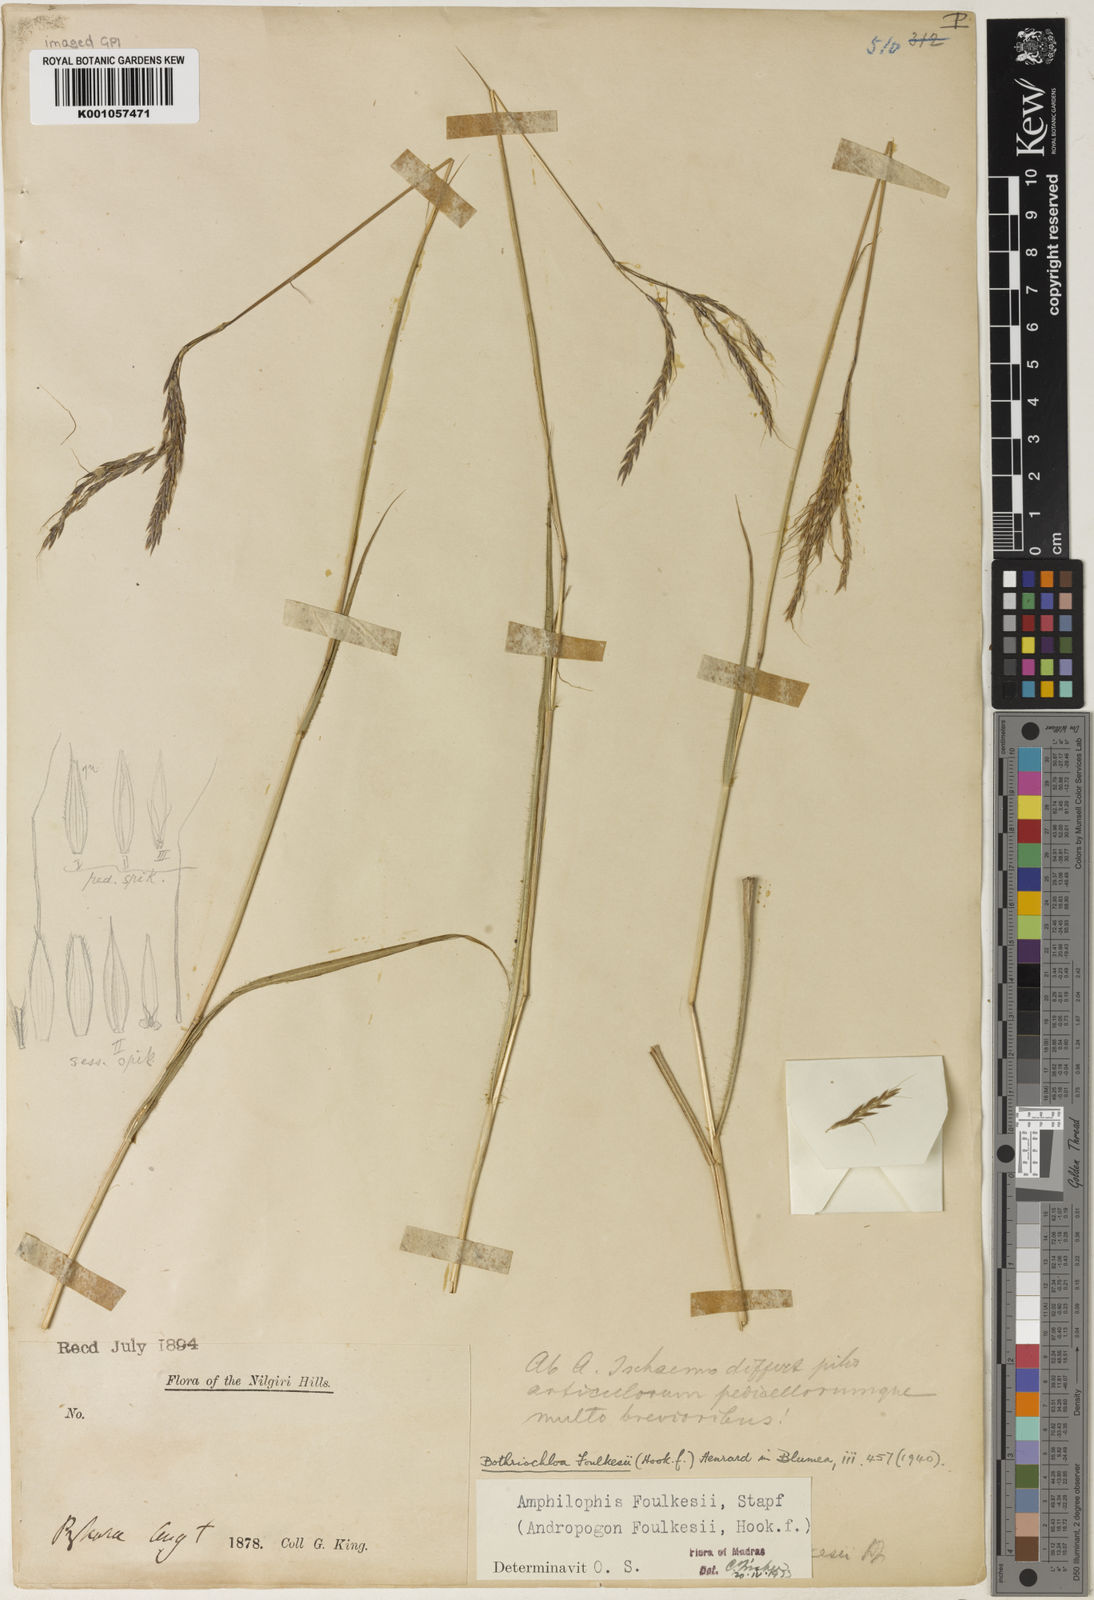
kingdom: Plantae
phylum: Tracheophyta
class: Liliopsida
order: Poales
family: Poaceae
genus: Dichanthium
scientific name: Dichanthium foulkesii
